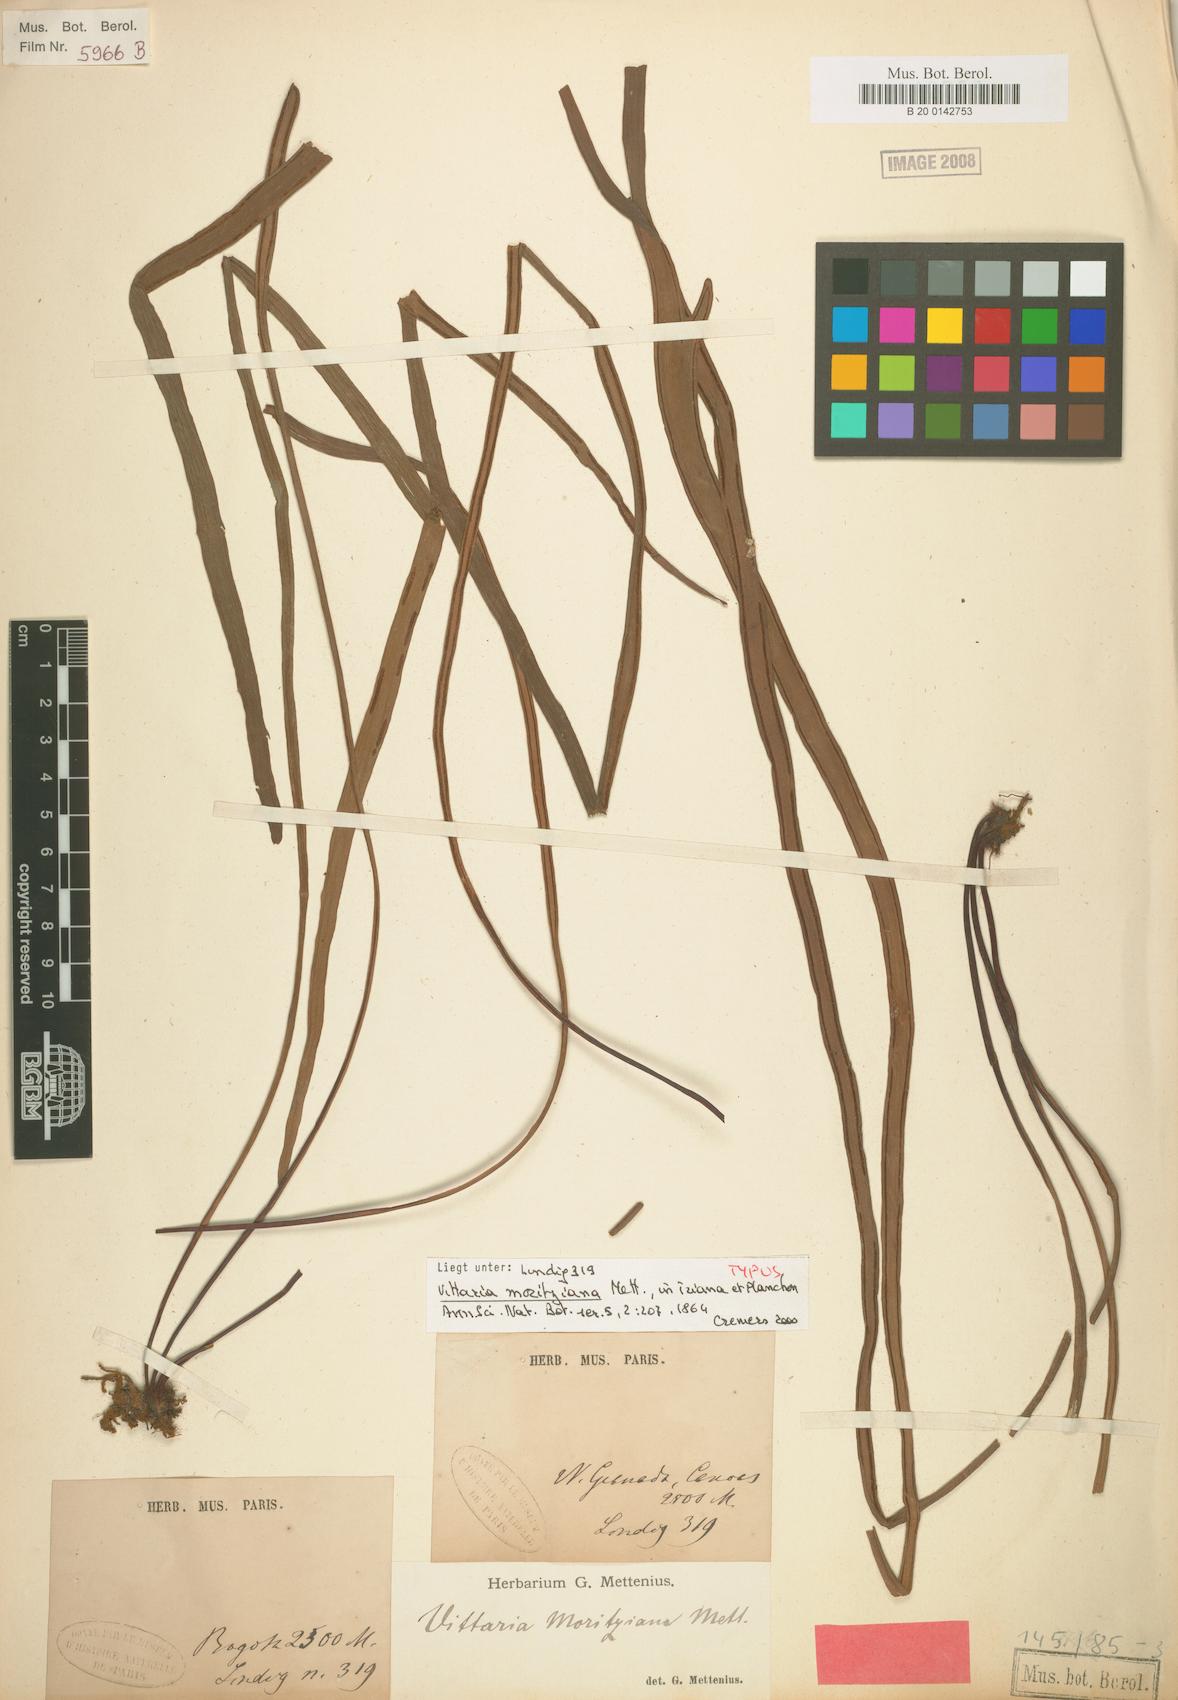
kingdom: Plantae
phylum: Tracheophyta
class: Polypodiopsida
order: Polypodiales
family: Pteridaceae
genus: Radiovittaria
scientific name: Radiovittaria moritziana
